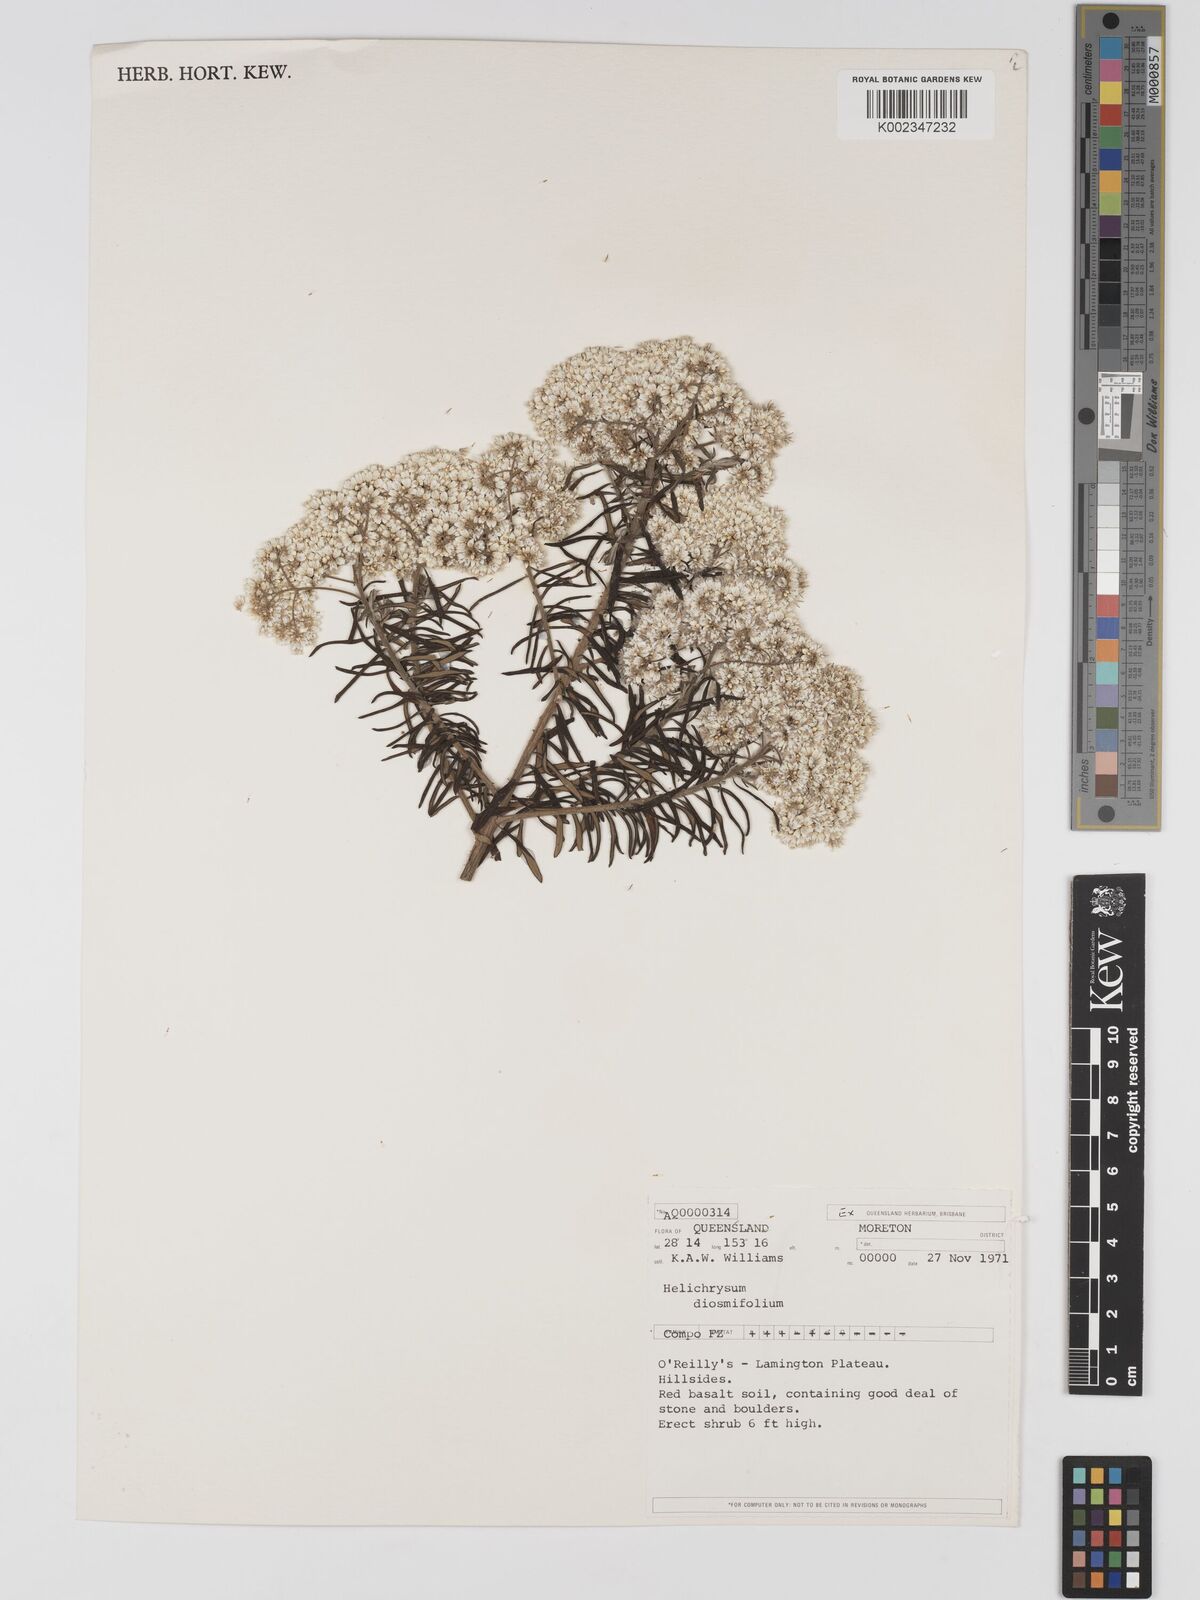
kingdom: Plantae
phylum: Tracheophyta
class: Magnoliopsida
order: Asterales
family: Asteraceae
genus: Ozothamnus
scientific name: Ozothamnus diosmifolius
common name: White-dogwood
